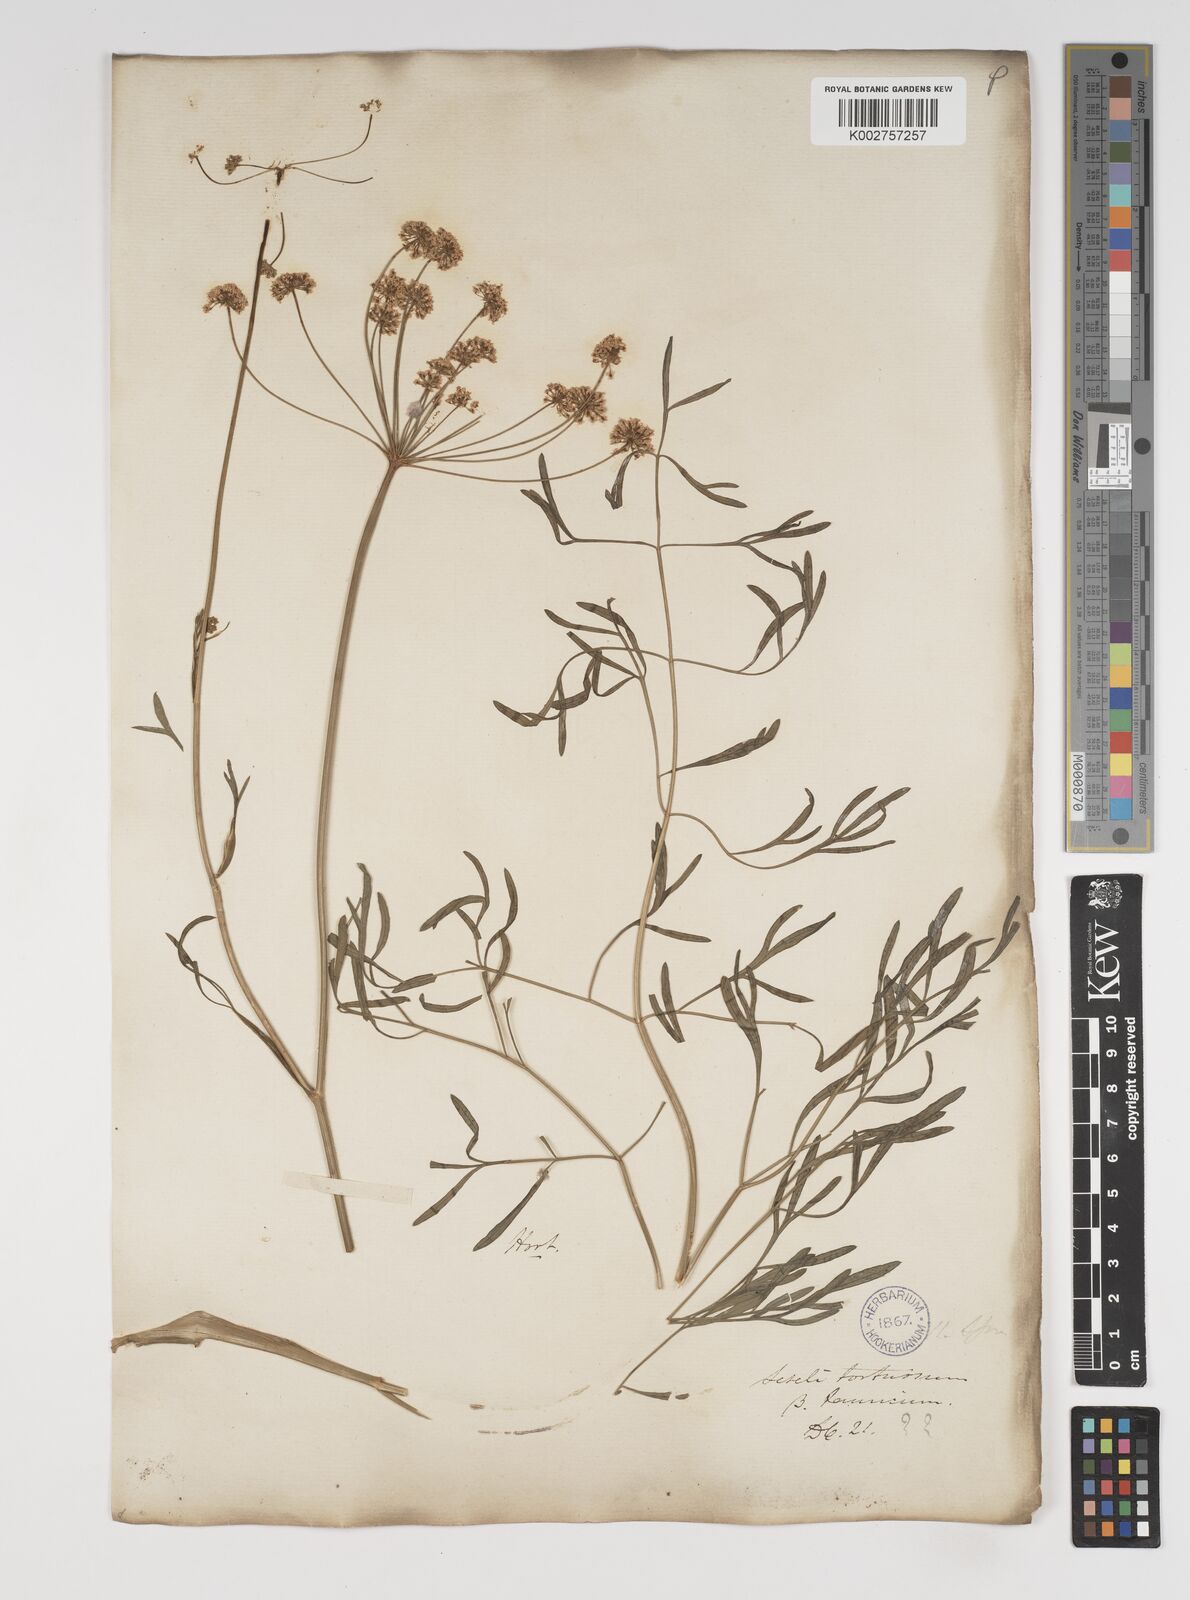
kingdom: Plantae
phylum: Tracheophyta
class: Magnoliopsida
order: Apiales
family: Apiaceae
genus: Seseli
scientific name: Seseli pallasii
